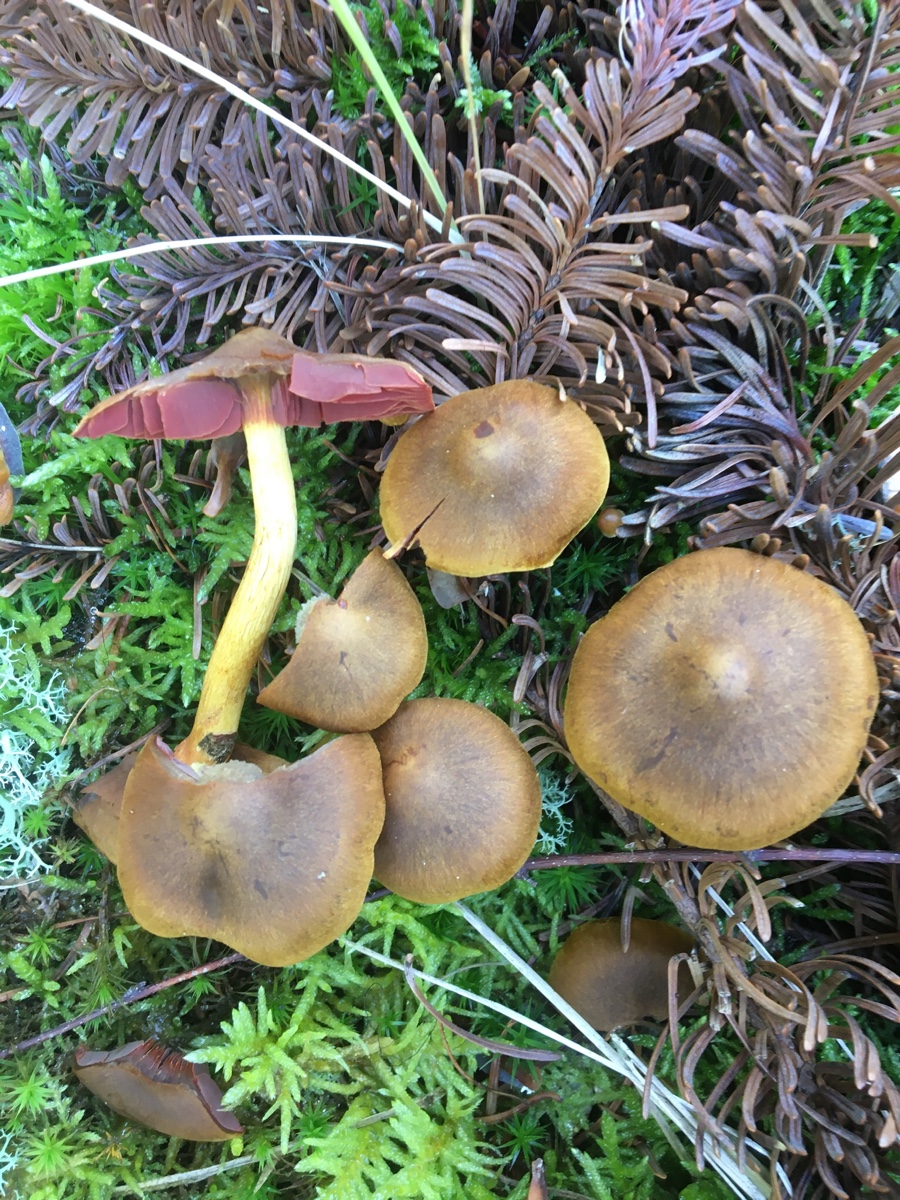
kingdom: Fungi
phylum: Basidiomycota
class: Agaricomycetes
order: Agaricales
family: Cortinariaceae
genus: Cortinarius
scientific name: Cortinarius
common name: cinnoberbladet slørhat
